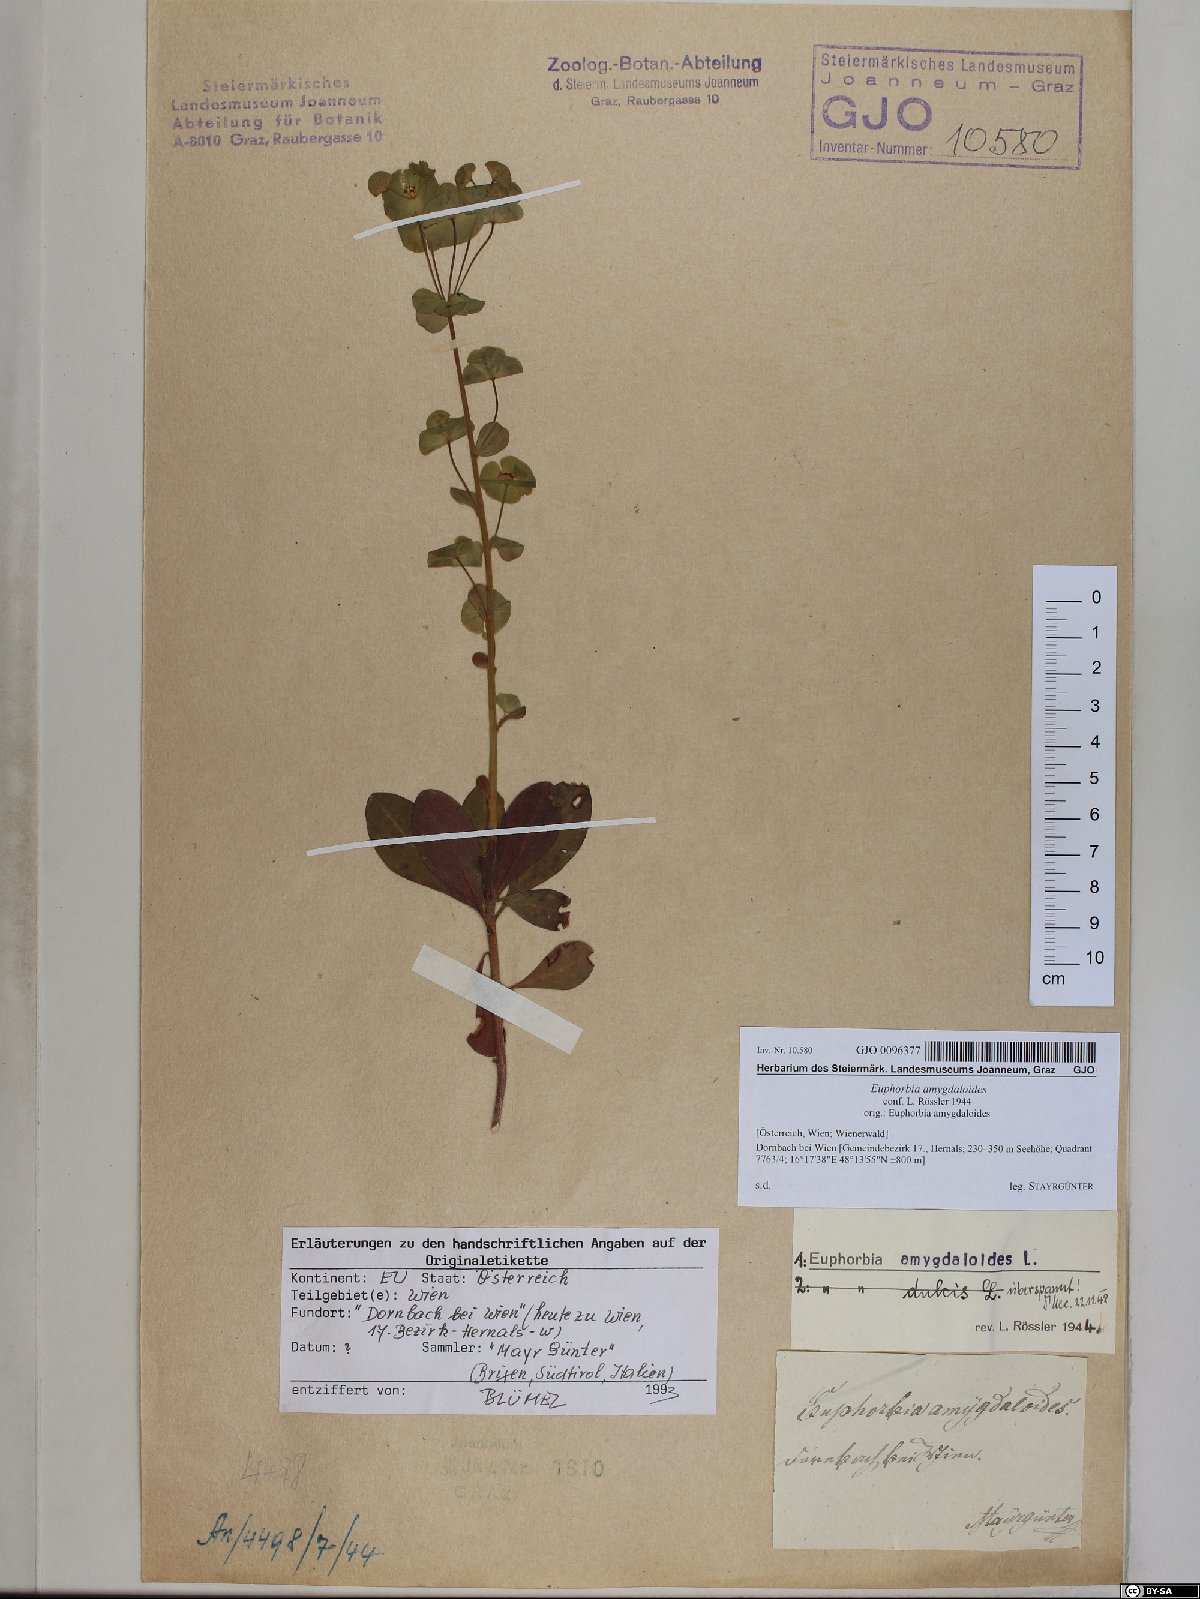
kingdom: Plantae
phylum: Tracheophyta
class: Magnoliopsida
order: Malpighiales
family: Euphorbiaceae
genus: Euphorbia
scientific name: Euphorbia amygdaloides
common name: Wood spurge
